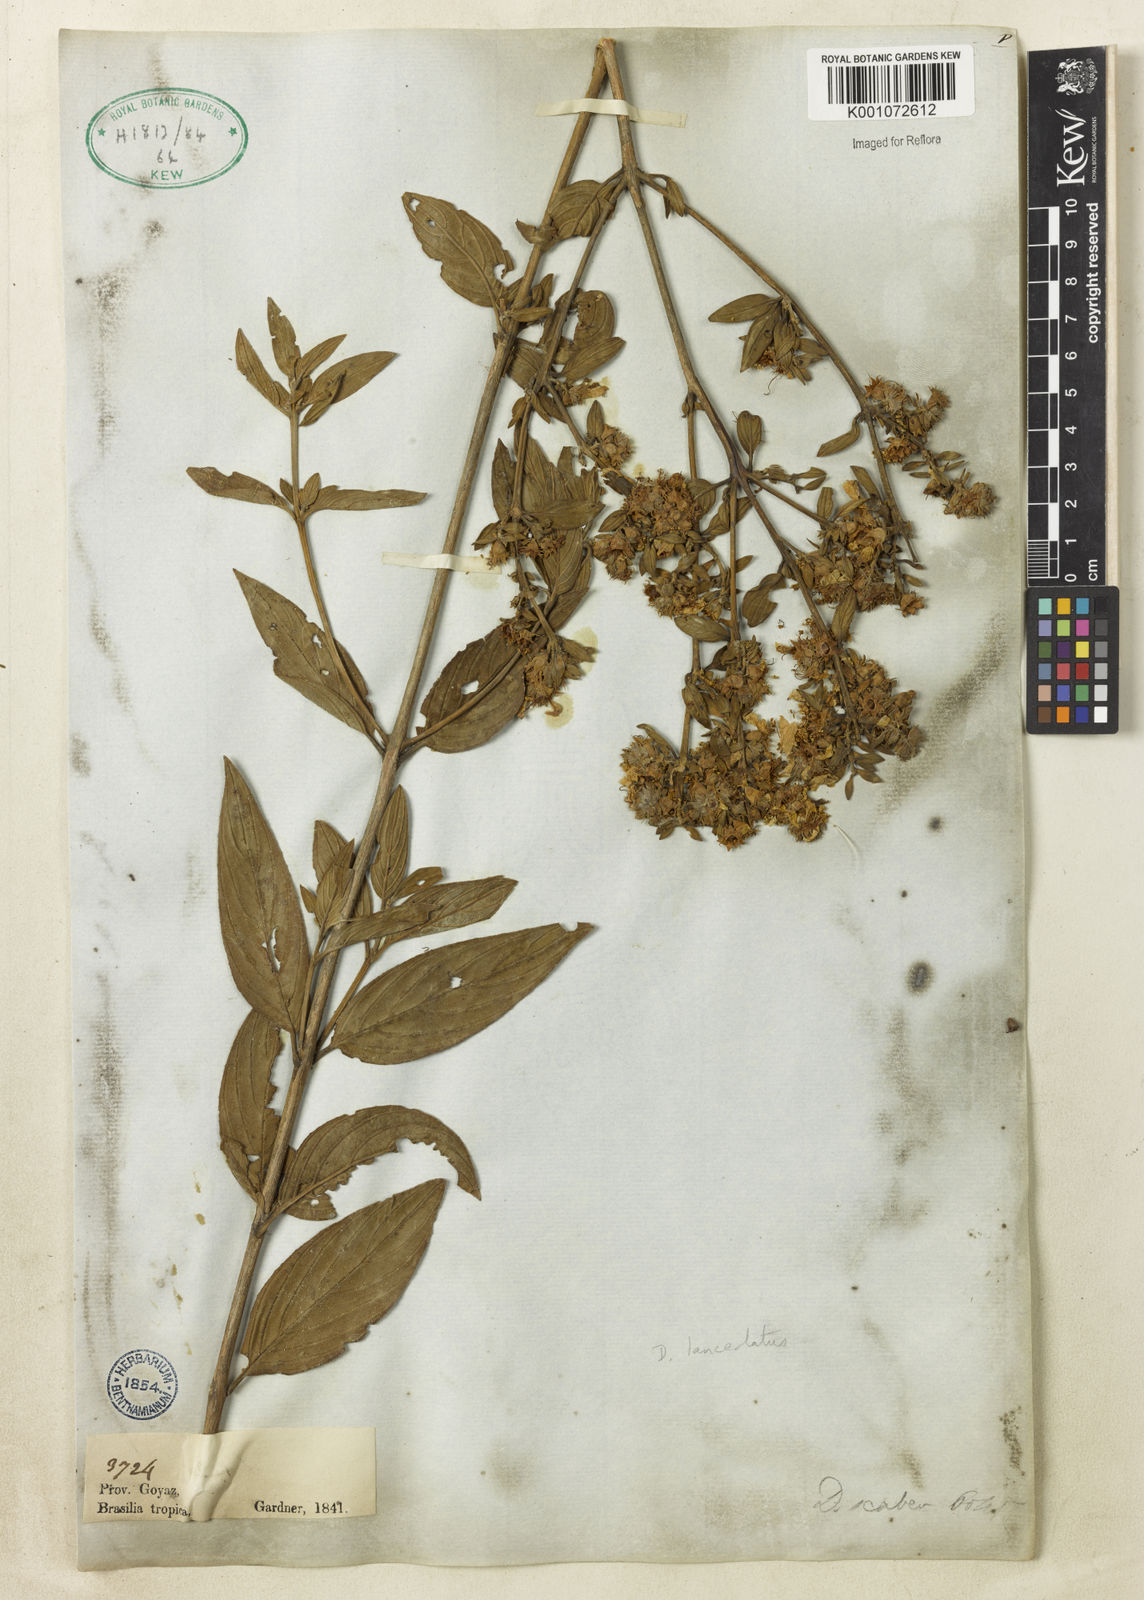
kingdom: Plantae
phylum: Tracheophyta
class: Magnoliopsida
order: Myrtales
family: Lythraceae
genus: Diplusodon
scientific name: Diplusodon lanceolatus
